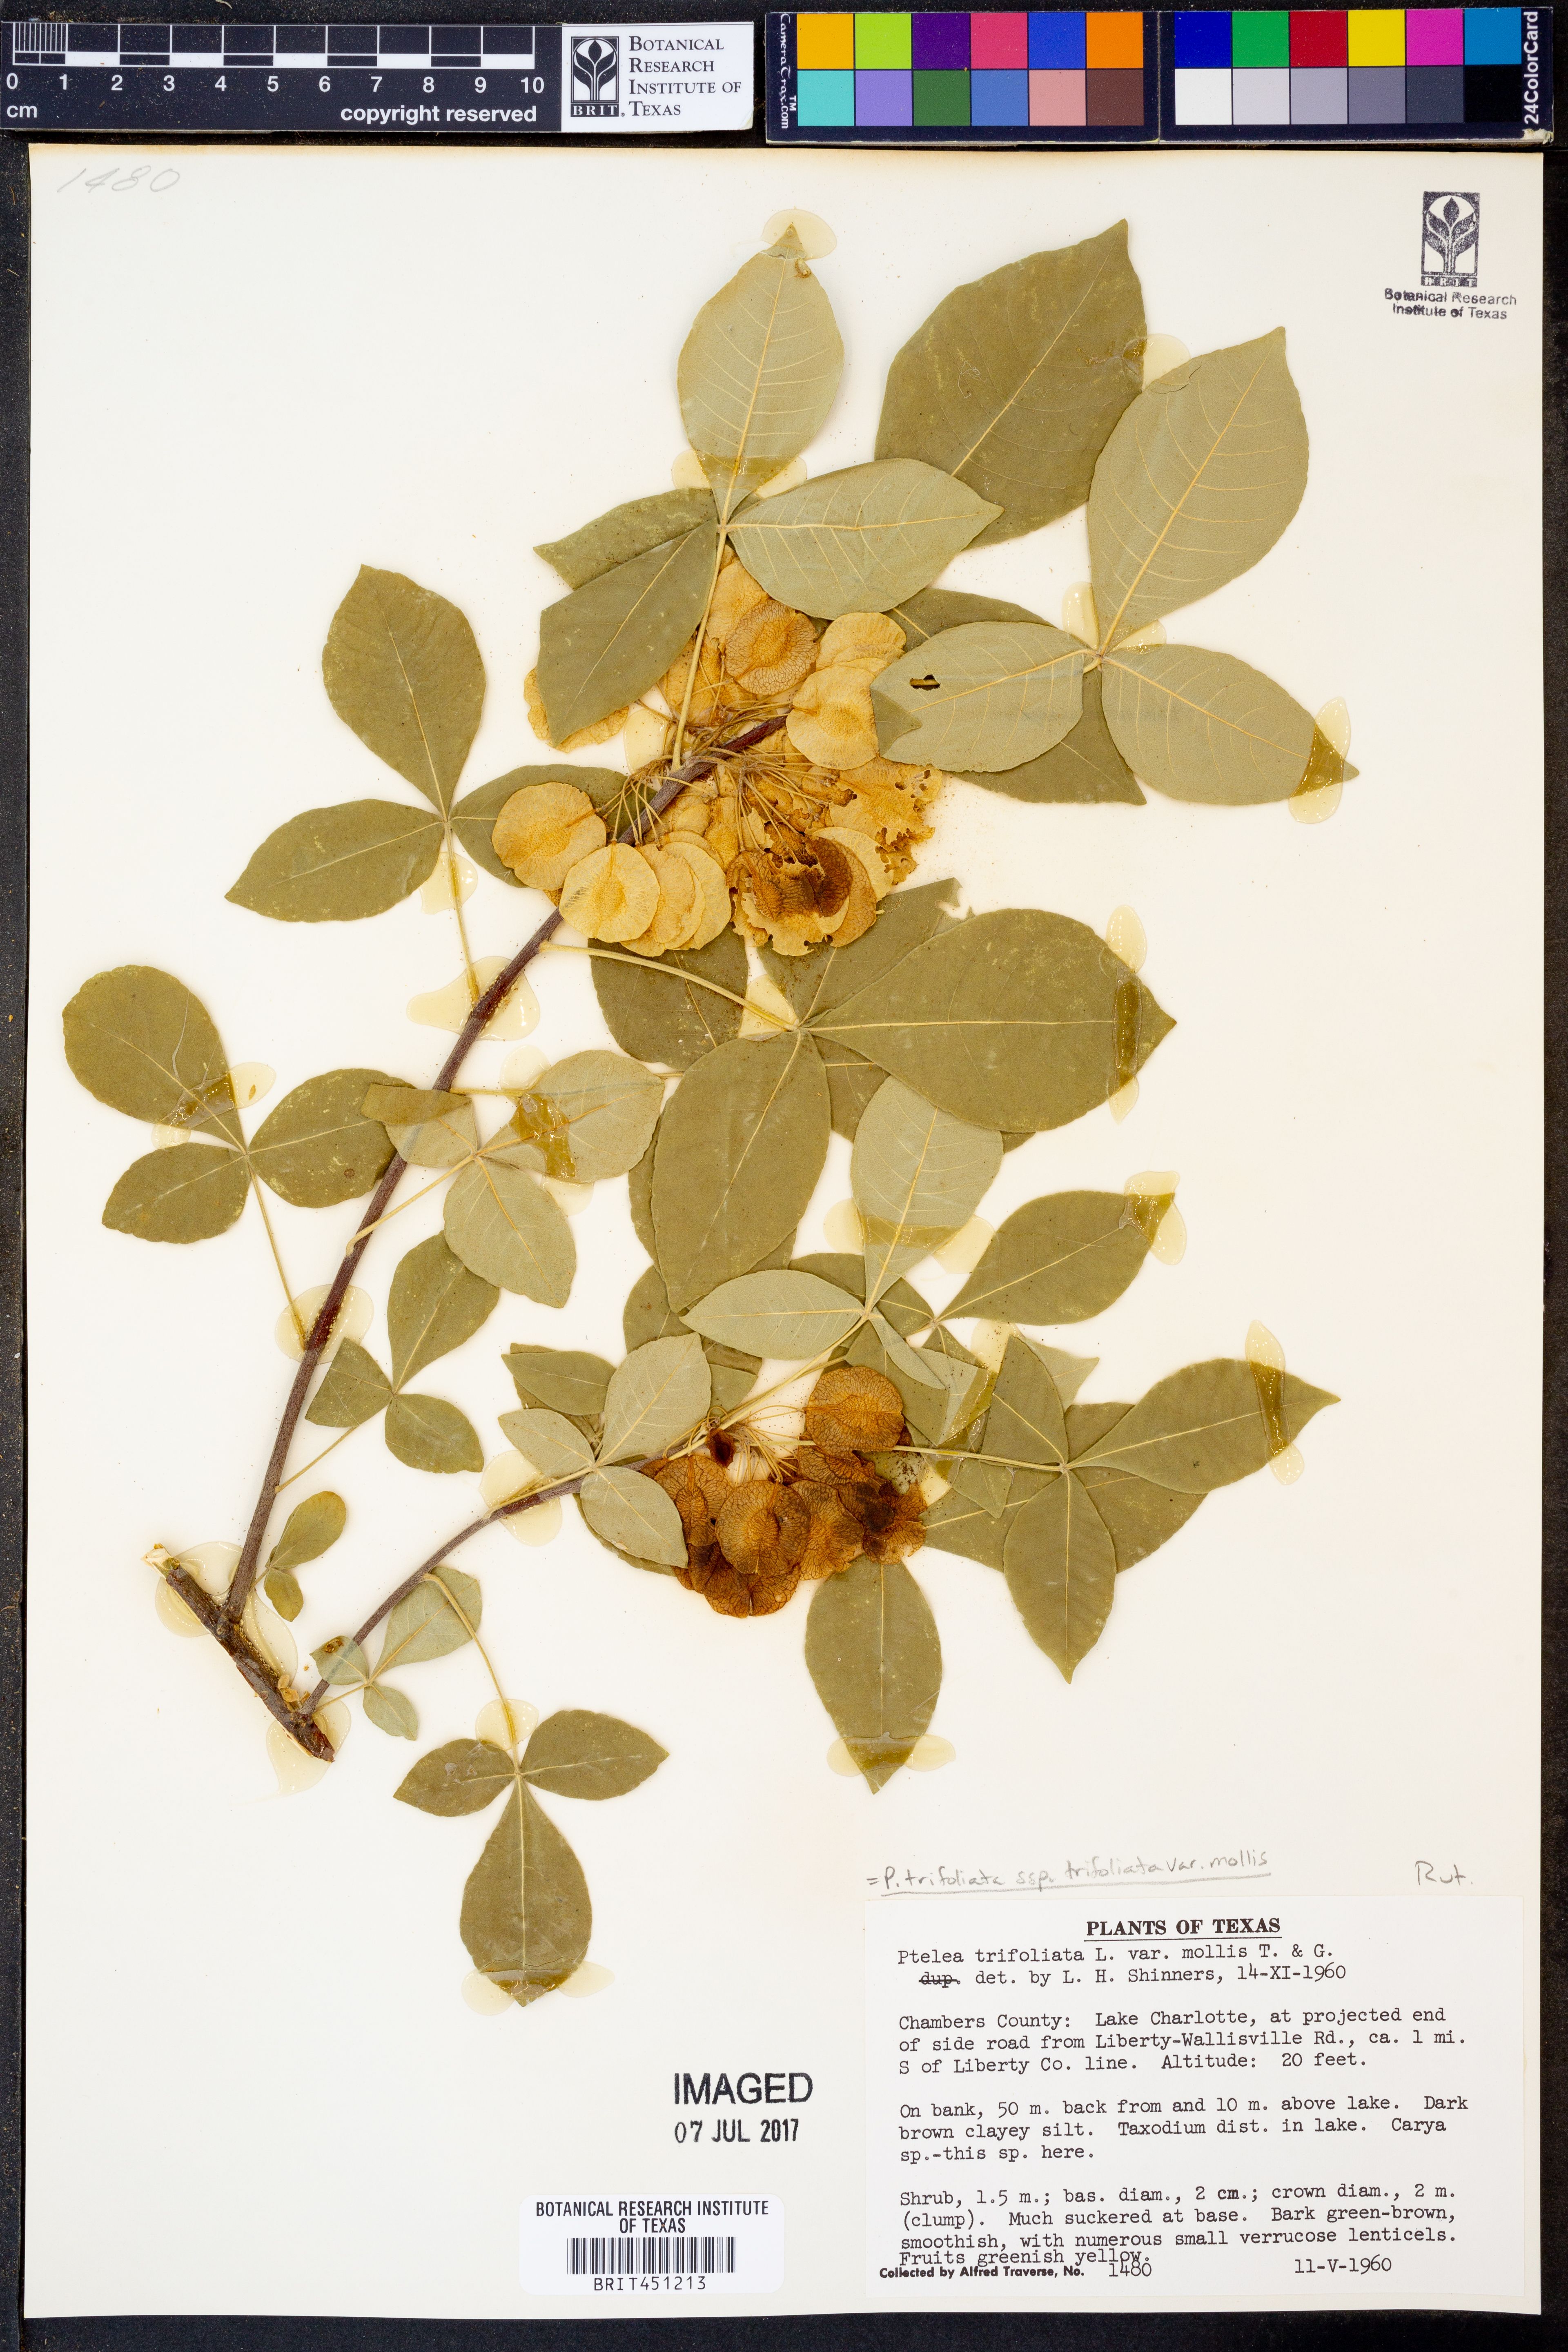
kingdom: Plantae
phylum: Tracheophyta
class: Magnoliopsida
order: Sapindales
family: Rutaceae
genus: Ptelea
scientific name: Ptelea trifoliata
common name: Common hop-tree
